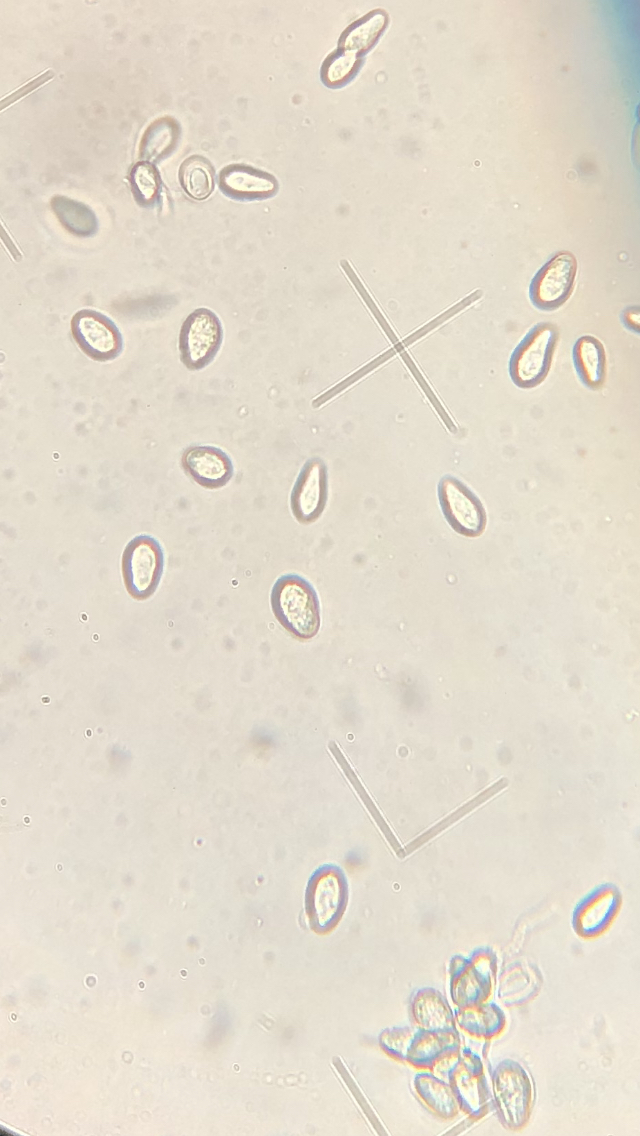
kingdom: Fungi
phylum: Basidiomycota
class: Ustilaginomycetes
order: Urocystidales
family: Urocystidaceae
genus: Urocystis
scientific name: Urocystis trientalis
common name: Chickweed wintergreen smut
